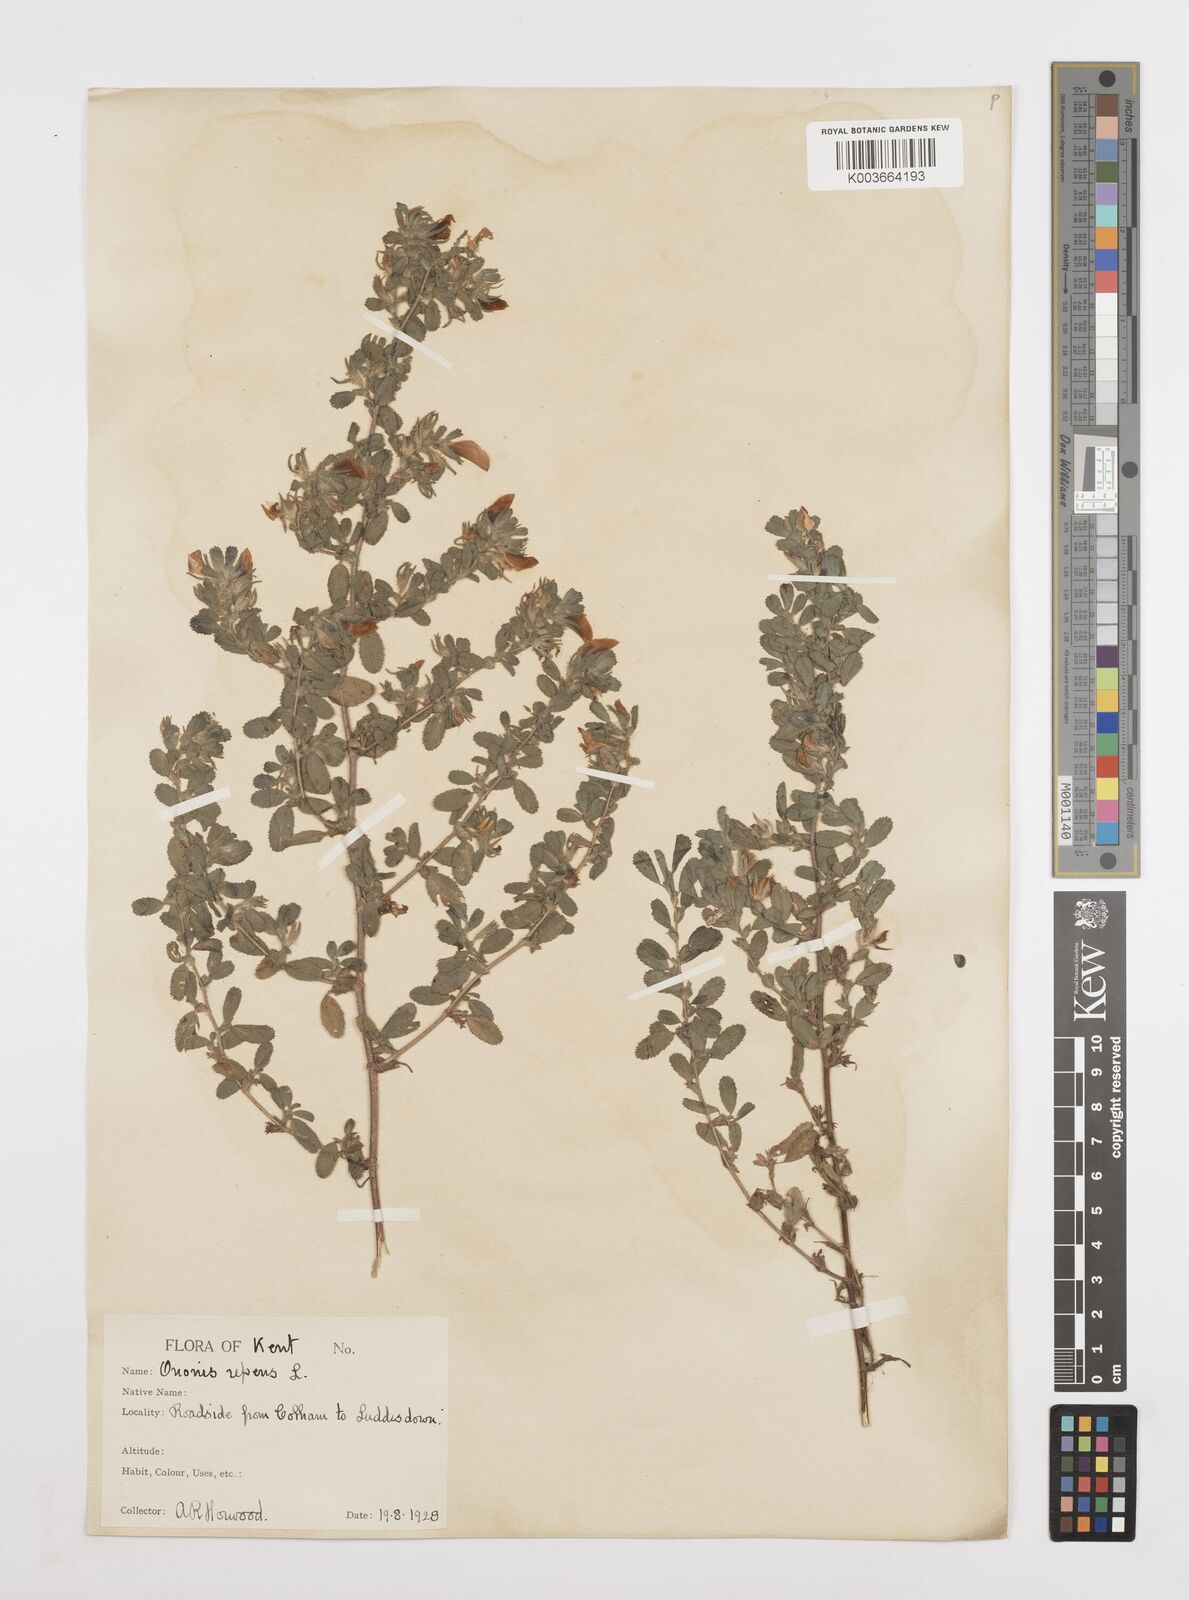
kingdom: Plantae
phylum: Tracheophyta
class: Magnoliopsida
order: Fabales
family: Fabaceae
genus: Ononis
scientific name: Ononis spinosa
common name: Spiny restharrow
